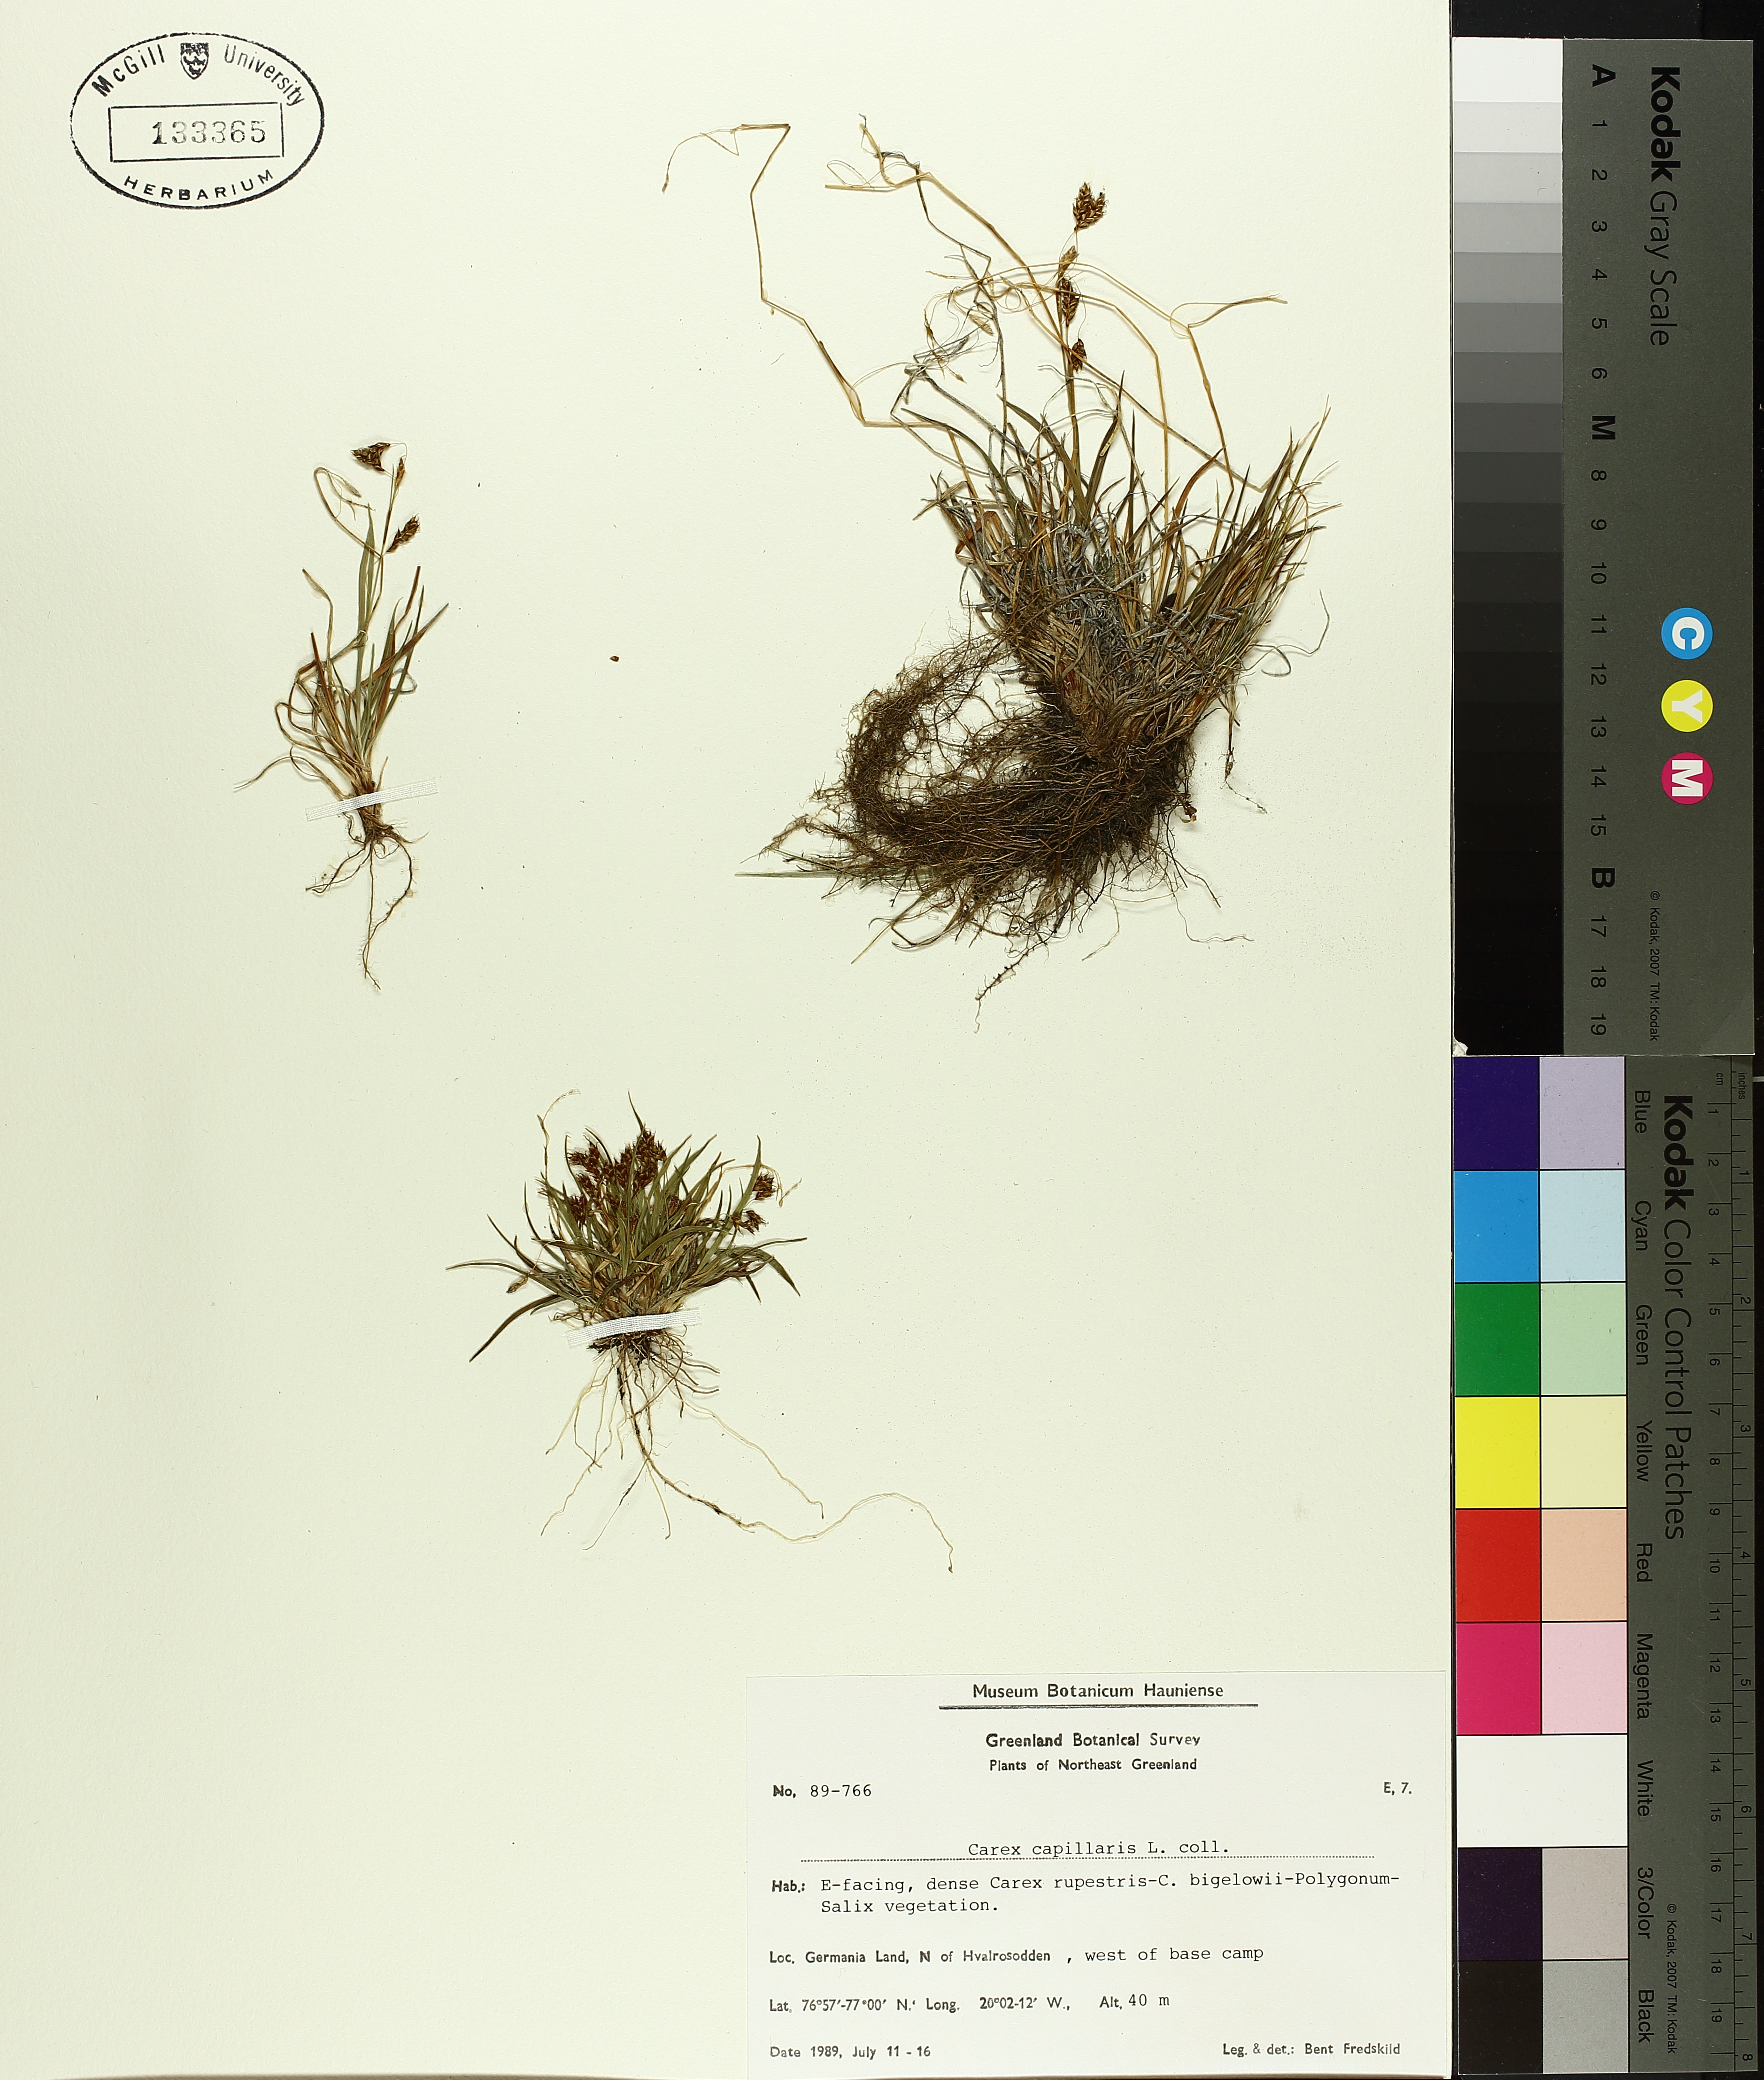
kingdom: Plantae
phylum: Tracheophyta
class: Liliopsida
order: Poales
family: Cyperaceae
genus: Carex
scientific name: Carex capillaris
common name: Hair sedge
